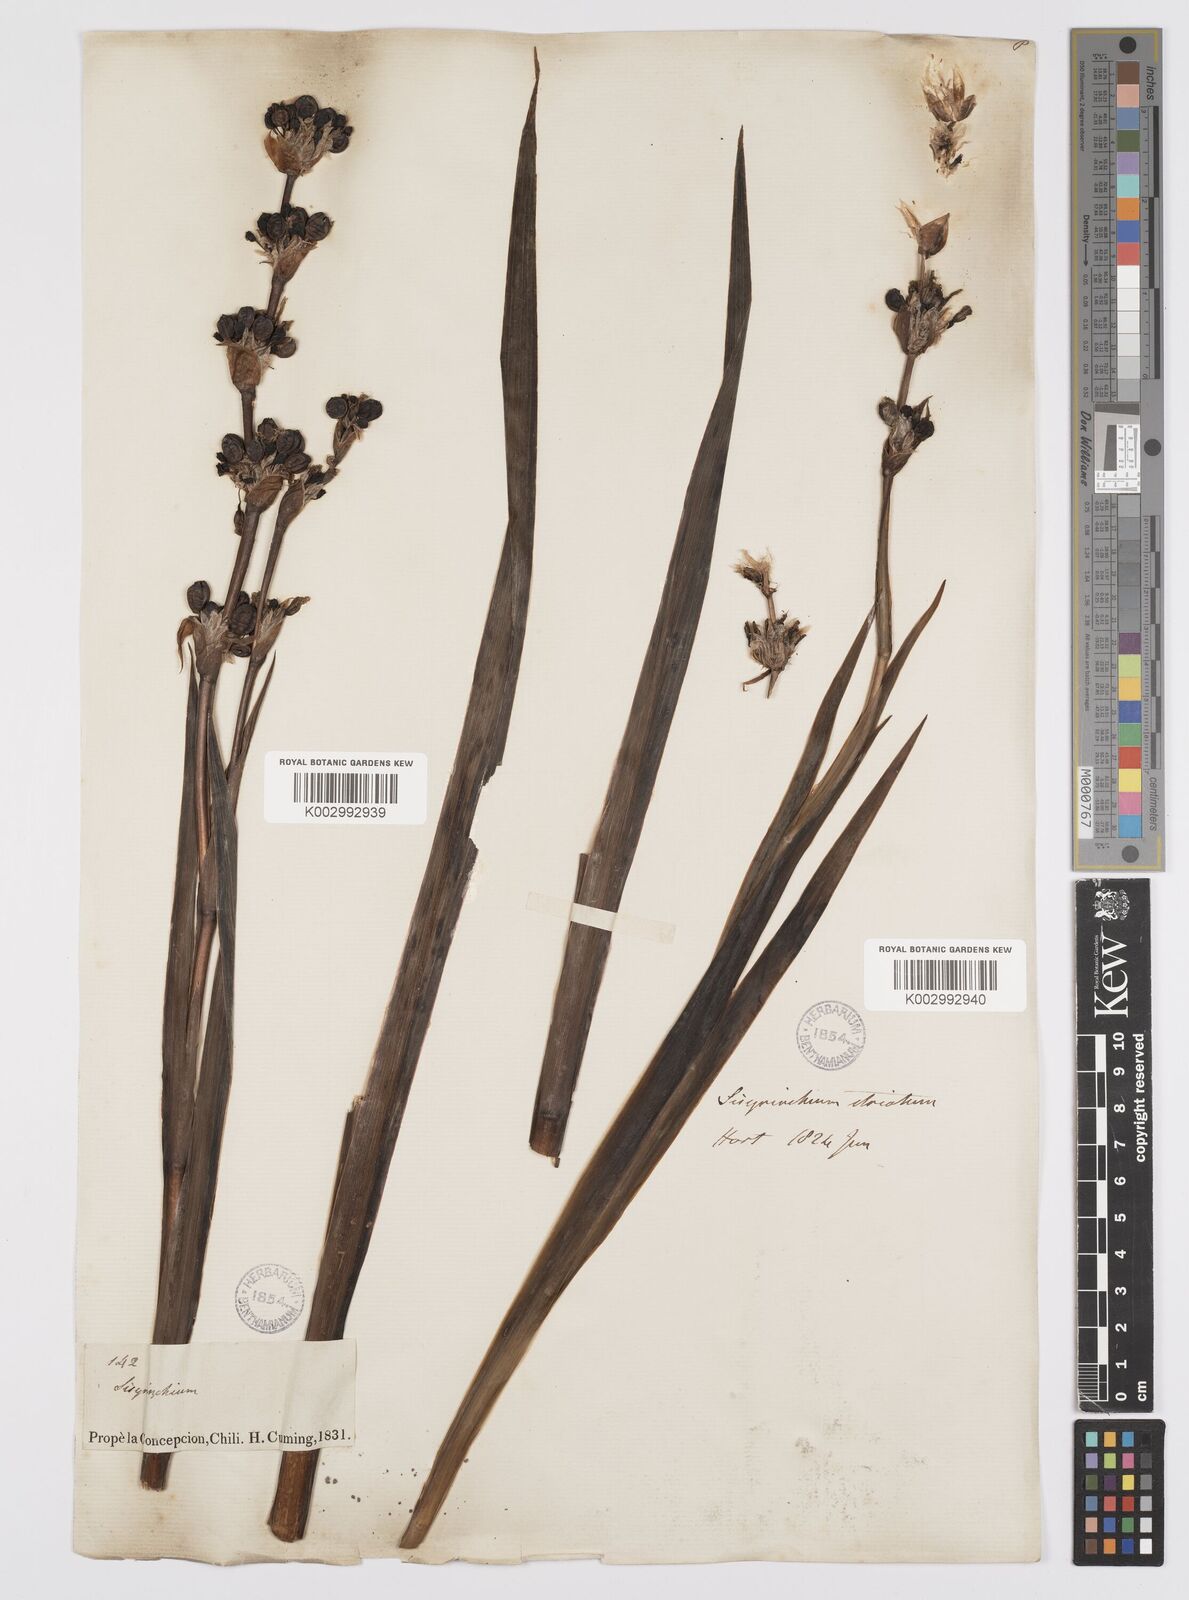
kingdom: Plantae
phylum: Tracheophyta
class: Liliopsida
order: Asparagales
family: Iridaceae
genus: Sisyrinchium
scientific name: Sisyrinchium striatum
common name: Pale yellow-eyed-grass
